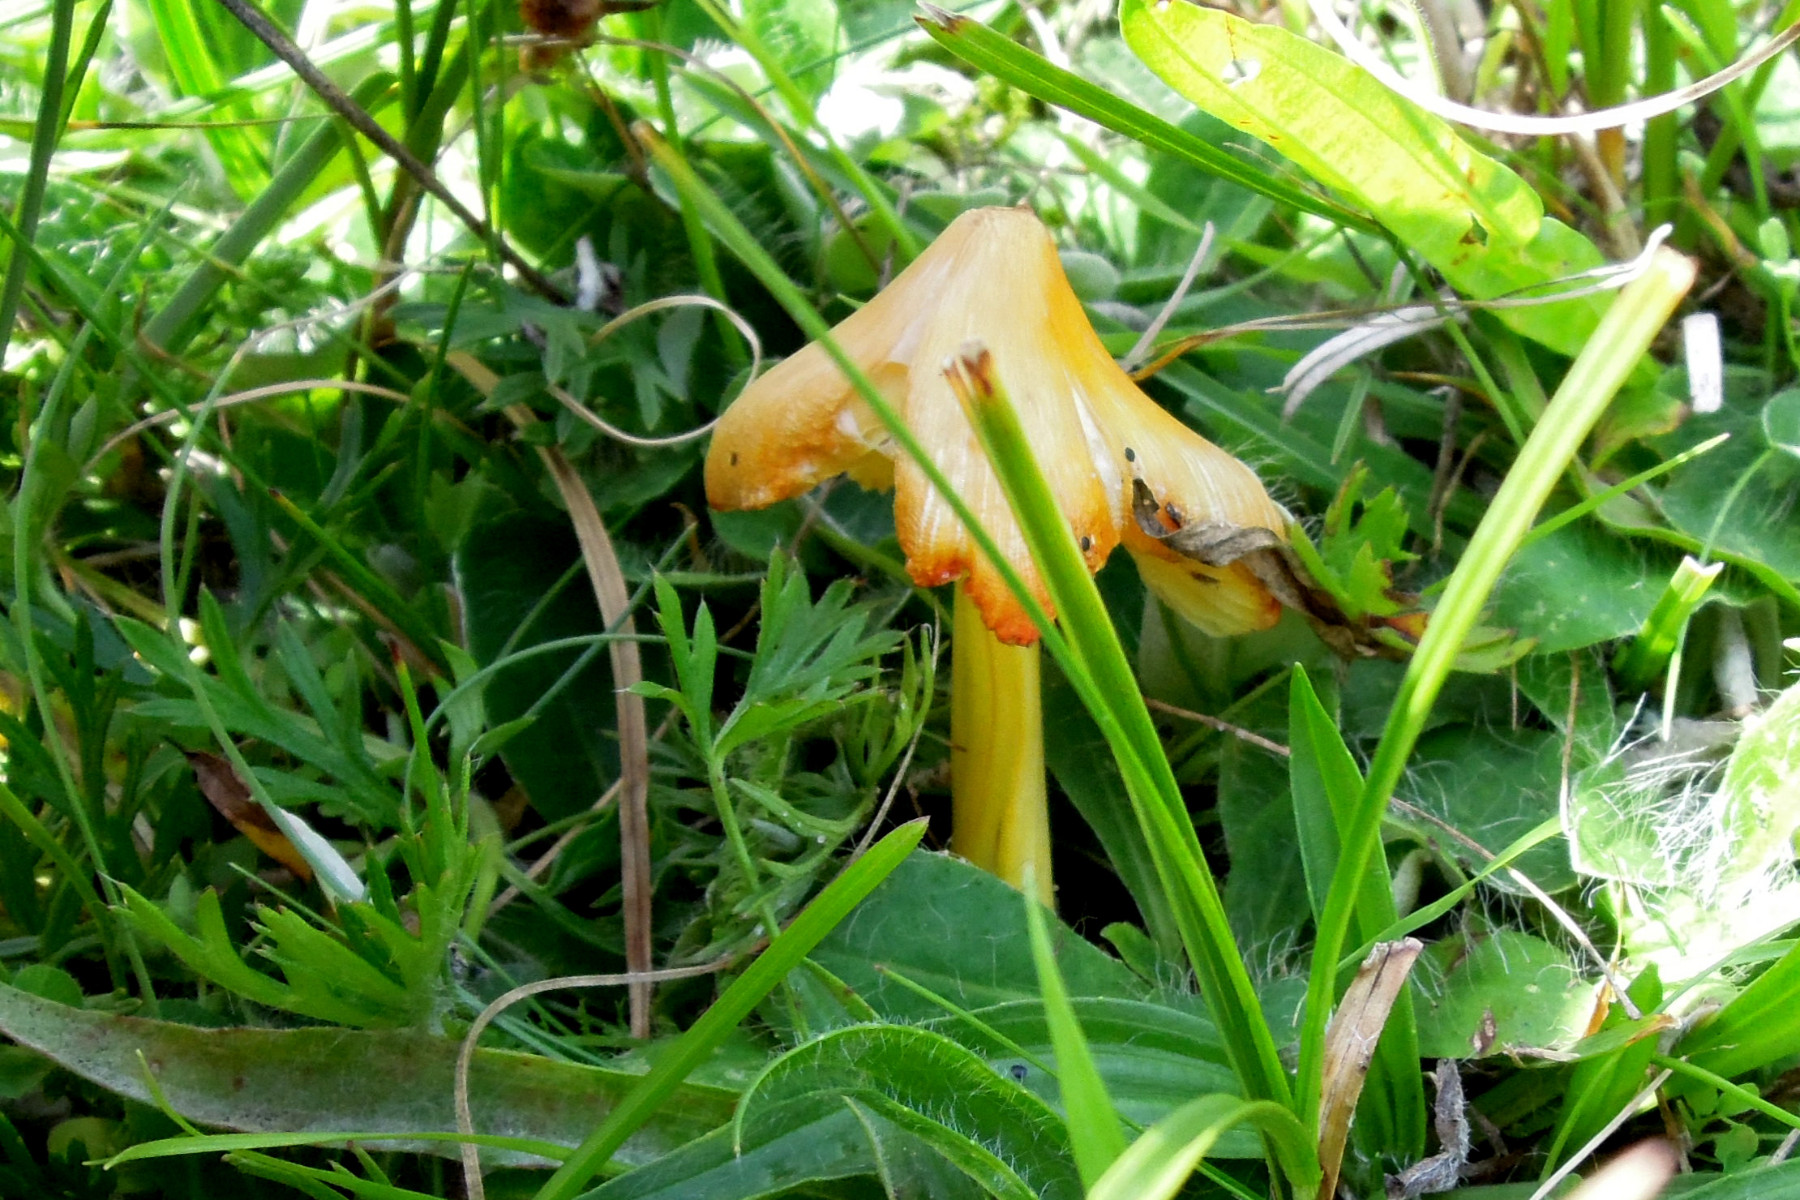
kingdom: Fungi
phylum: Basidiomycota
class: Agaricomycetes
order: Agaricales
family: Hygrophoraceae
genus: Hygrocybe
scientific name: Hygrocybe acutoconica
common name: spidspuklet vokshat
